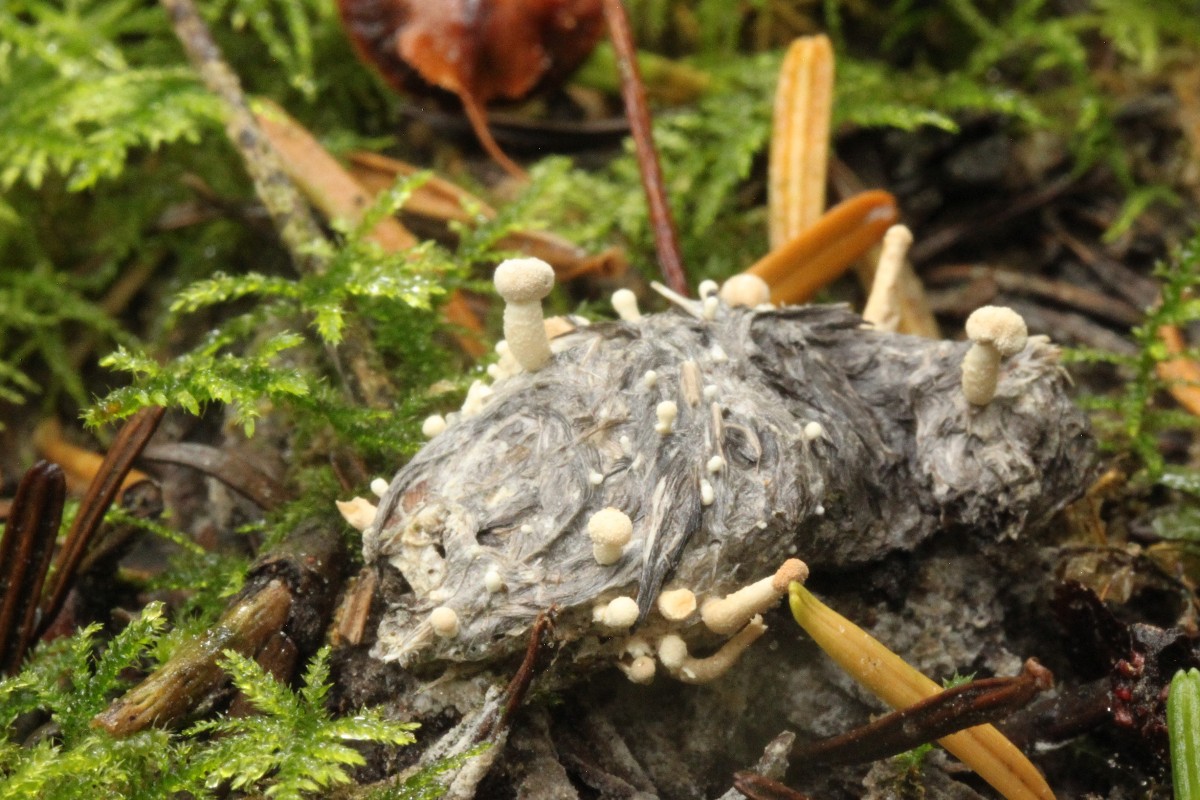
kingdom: Fungi
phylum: Ascomycota
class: Eurotiomycetes
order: Onygenales
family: Onygenaceae
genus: Onygena
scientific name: Onygena corvina
